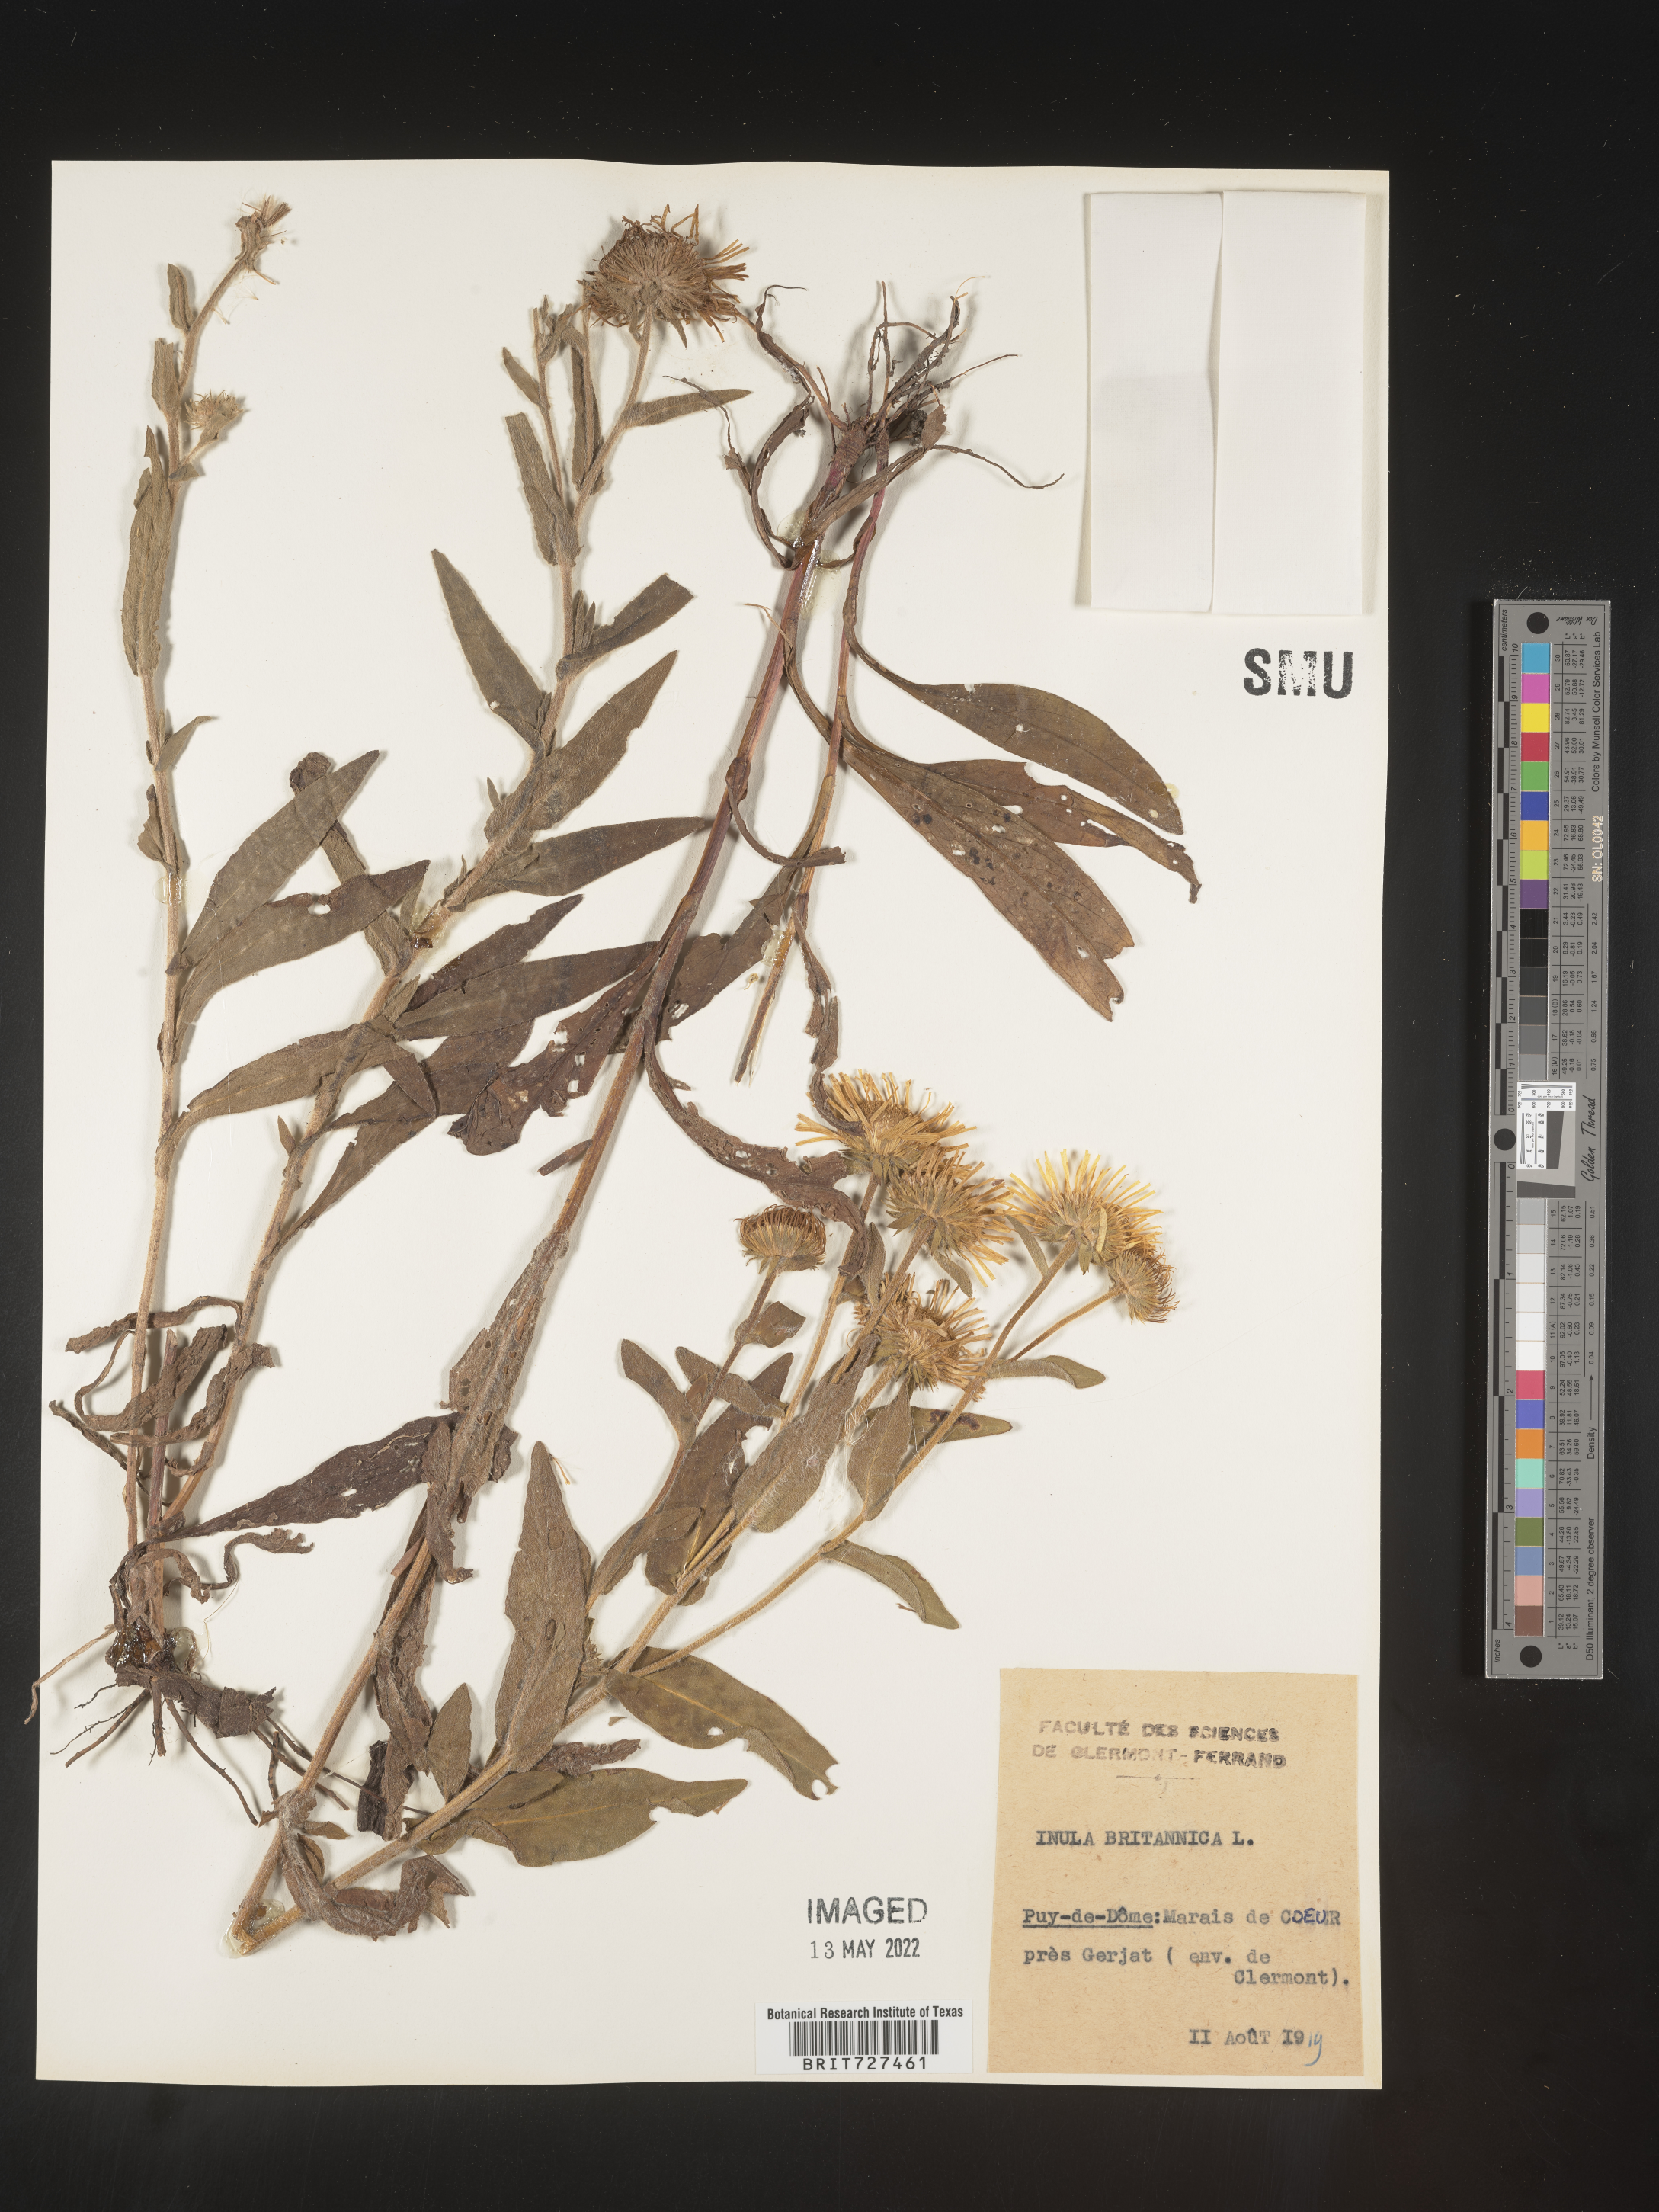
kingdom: Plantae
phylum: Tracheophyta
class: Magnoliopsida
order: Asterales
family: Asteraceae
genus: Inula
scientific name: Inula
